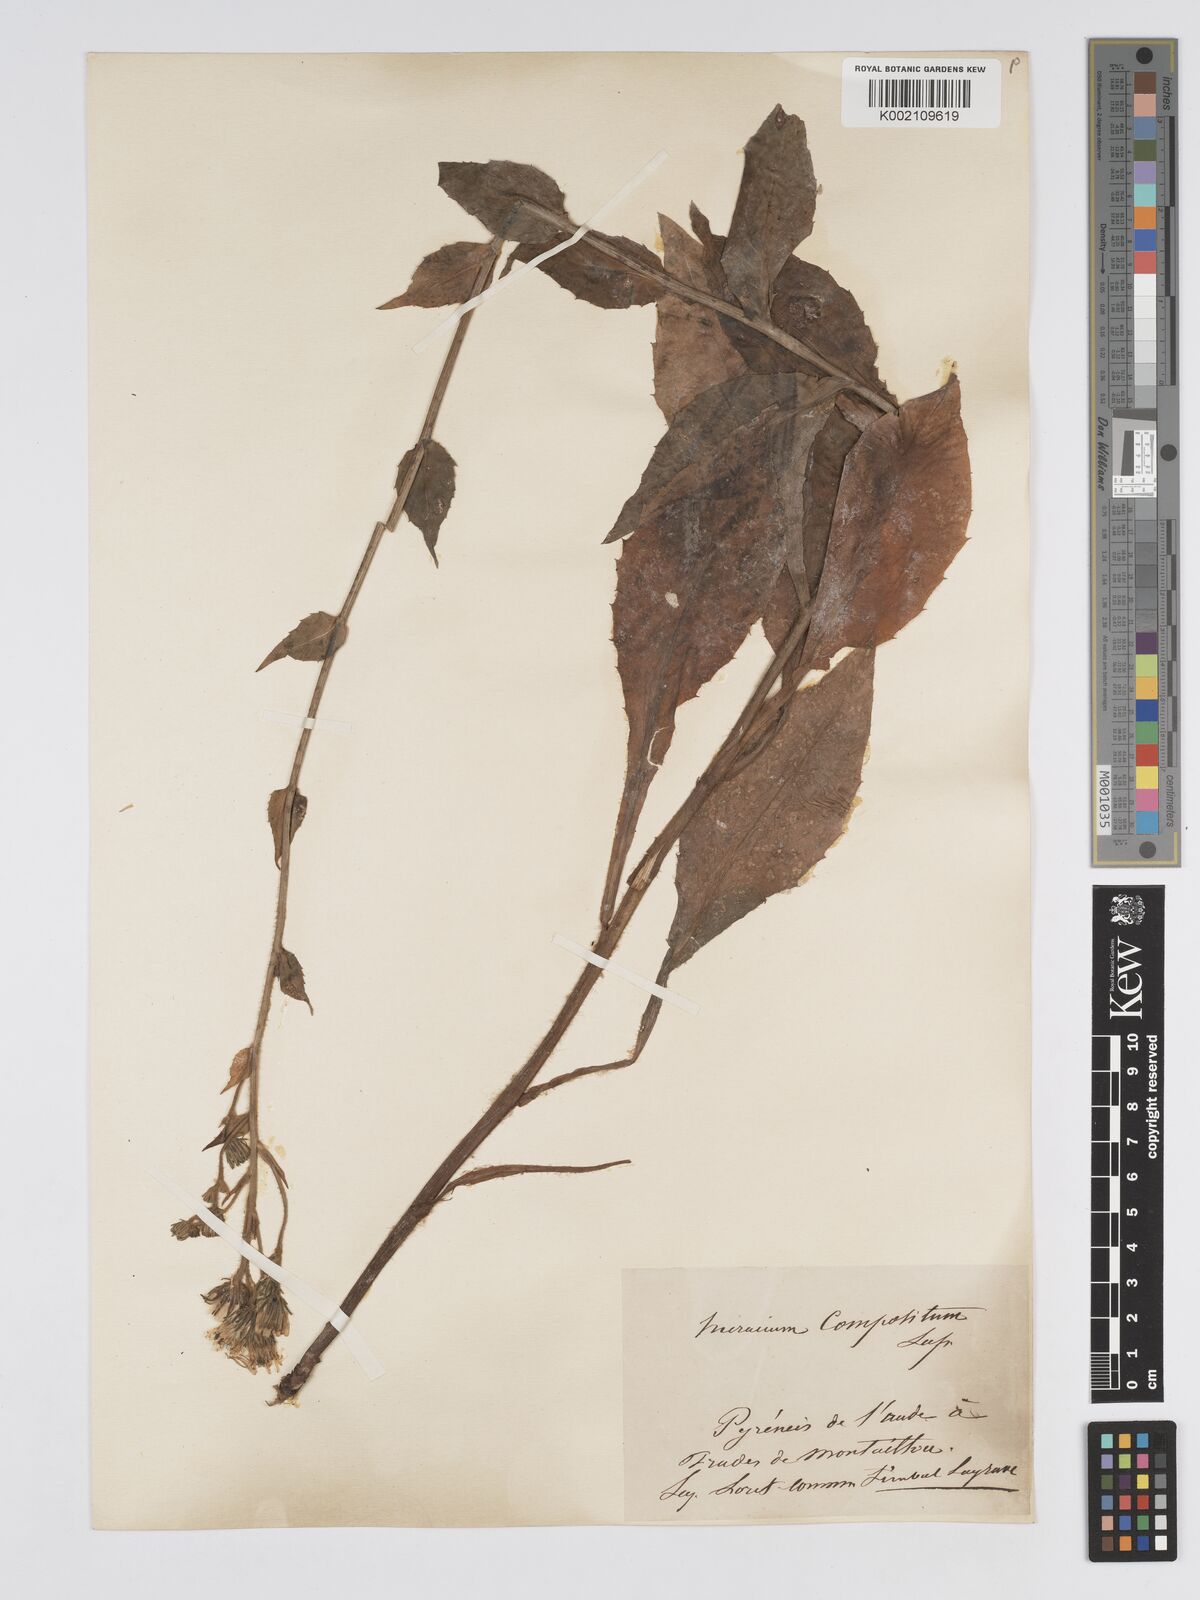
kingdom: Plantae
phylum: Tracheophyta
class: Magnoliopsida
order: Asterales
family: Asteraceae
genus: Hieracium
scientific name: Hieracium compositum
